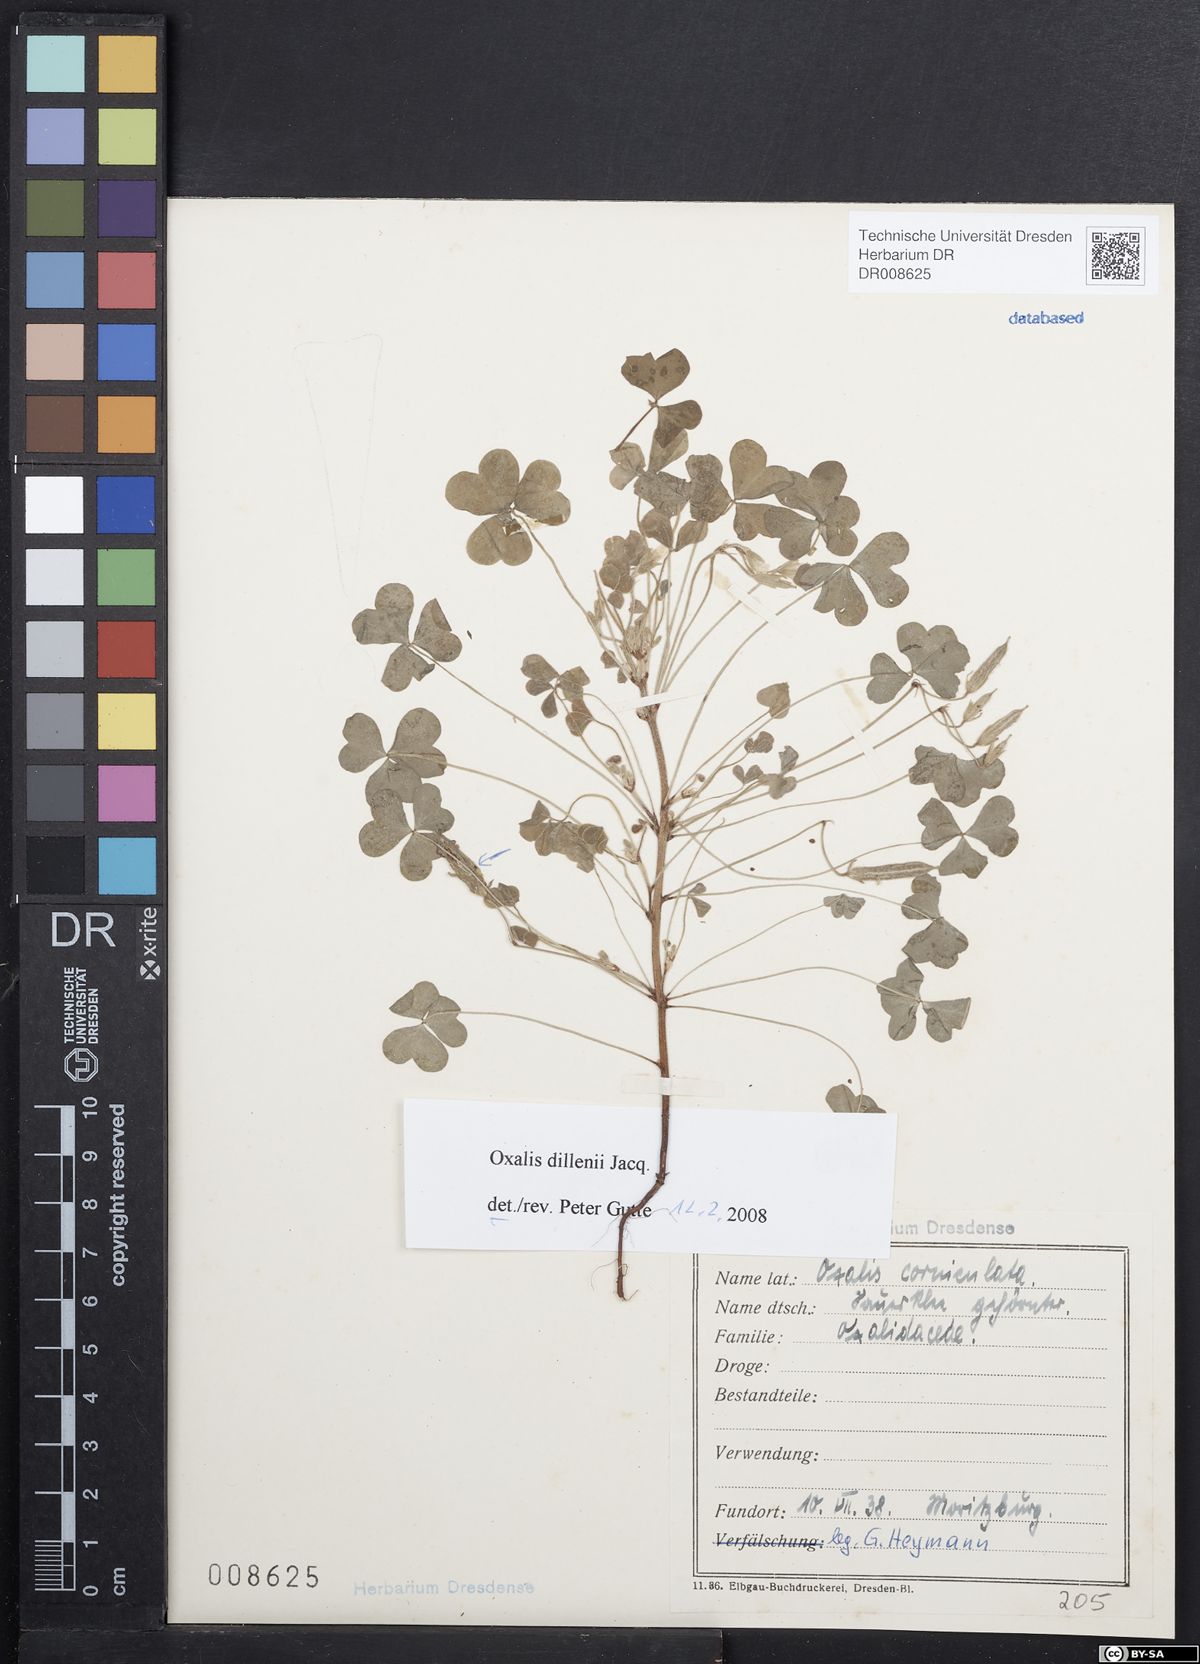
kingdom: Plantae
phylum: Tracheophyta
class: Magnoliopsida
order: Oxalidales
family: Oxalidaceae
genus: Oxalis
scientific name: Oxalis dillenii
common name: Sussex yellow-sorrel
